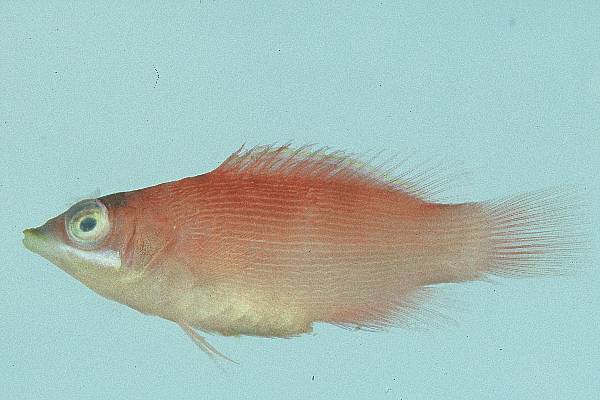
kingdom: Animalia
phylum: Chordata
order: Perciformes
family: Labridae
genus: Pseudocheilinus
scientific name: Pseudocheilinus evanidus
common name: Disappearing wrasse
